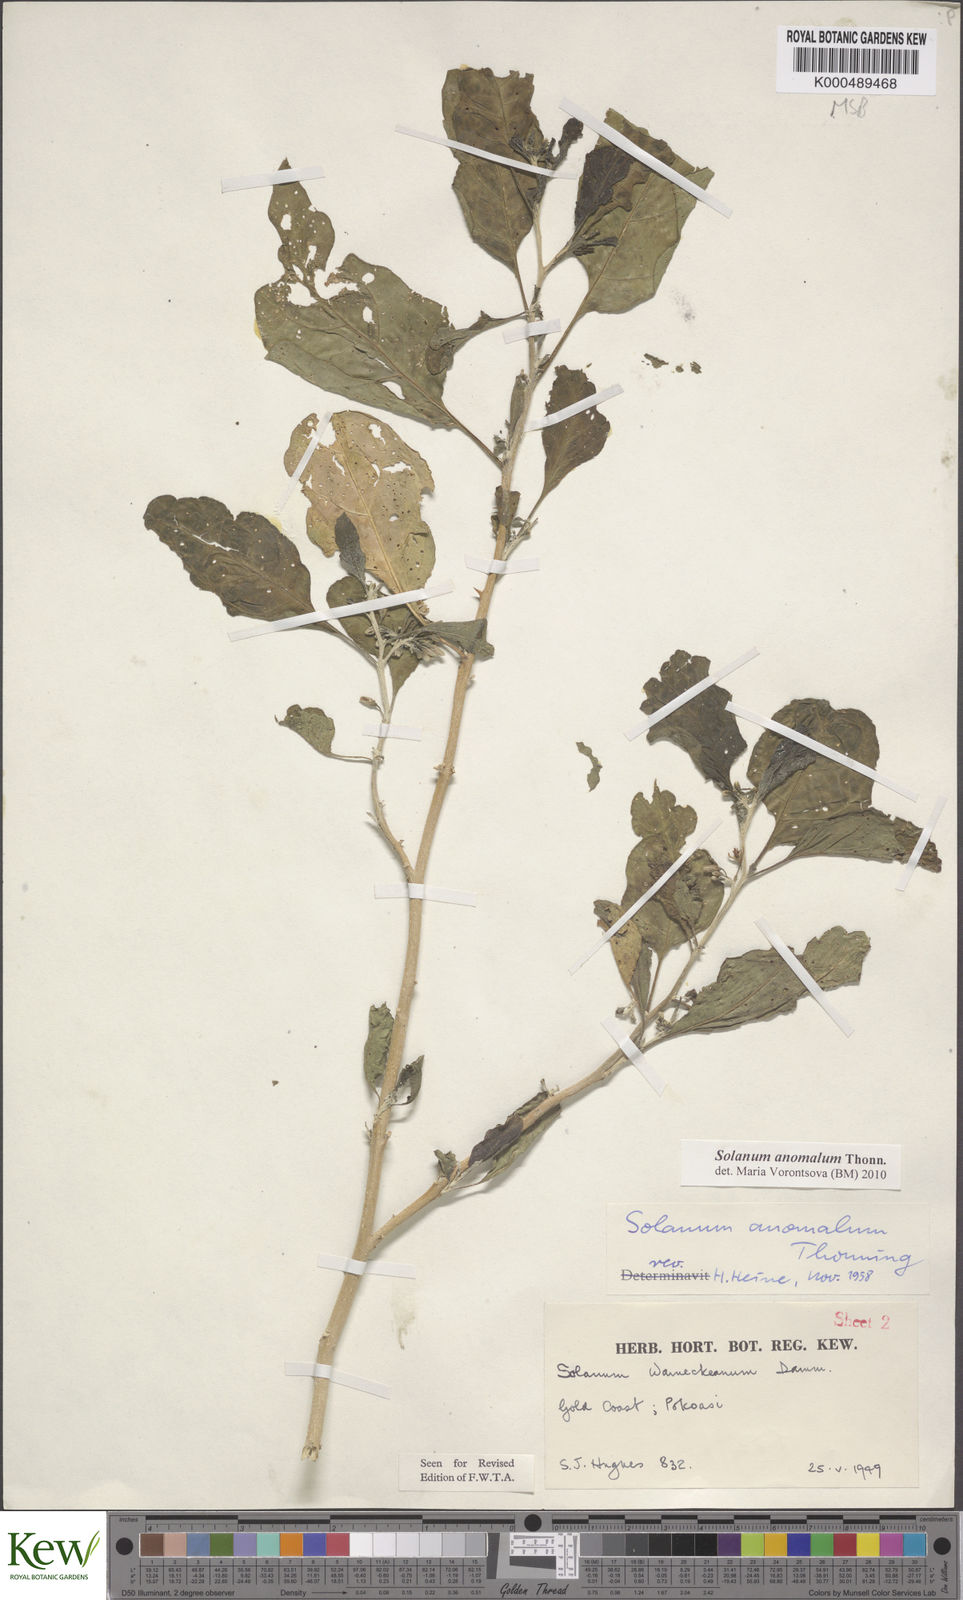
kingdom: Plantae
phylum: Tracheophyta
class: Magnoliopsida
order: Solanales
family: Solanaceae
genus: Solanum
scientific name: Solanum anomalum
